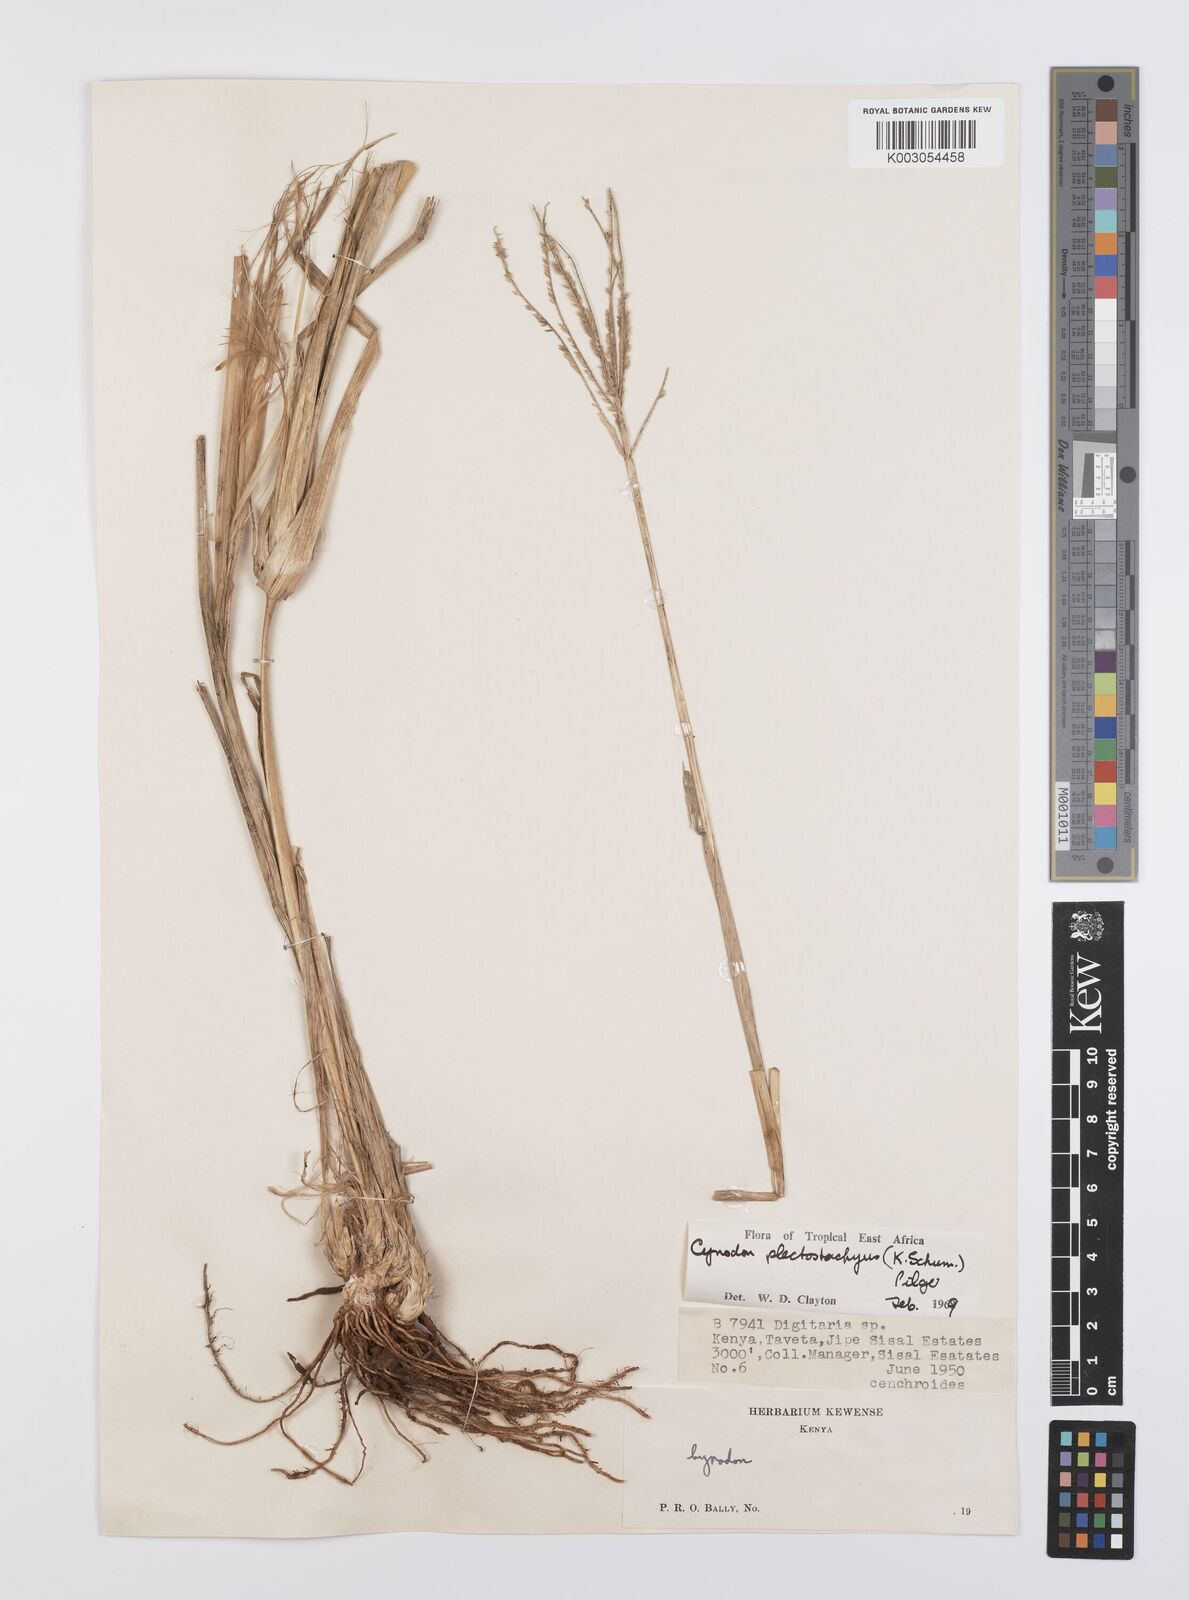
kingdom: Plantae
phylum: Tracheophyta
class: Liliopsida
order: Poales
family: Poaceae
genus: Cynodon
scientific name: Cynodon plectostachyus
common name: Stargrass
